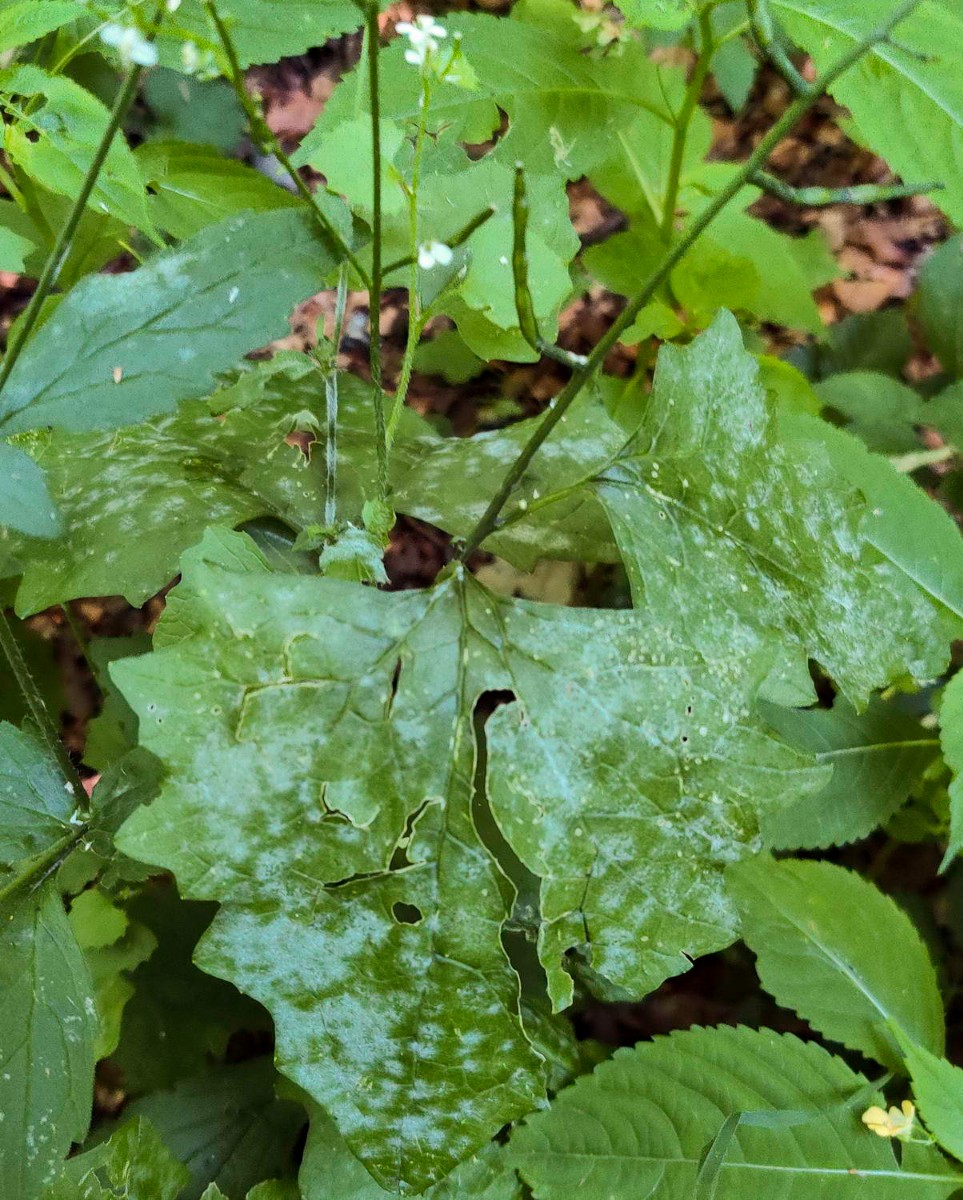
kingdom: Fungi
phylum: Ascomycota
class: Leotiomycetes
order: Helotiales
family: Erysiphaceae
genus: Erysiphe
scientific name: Erysiphe cruciferarum
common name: korsblomst-meldug
